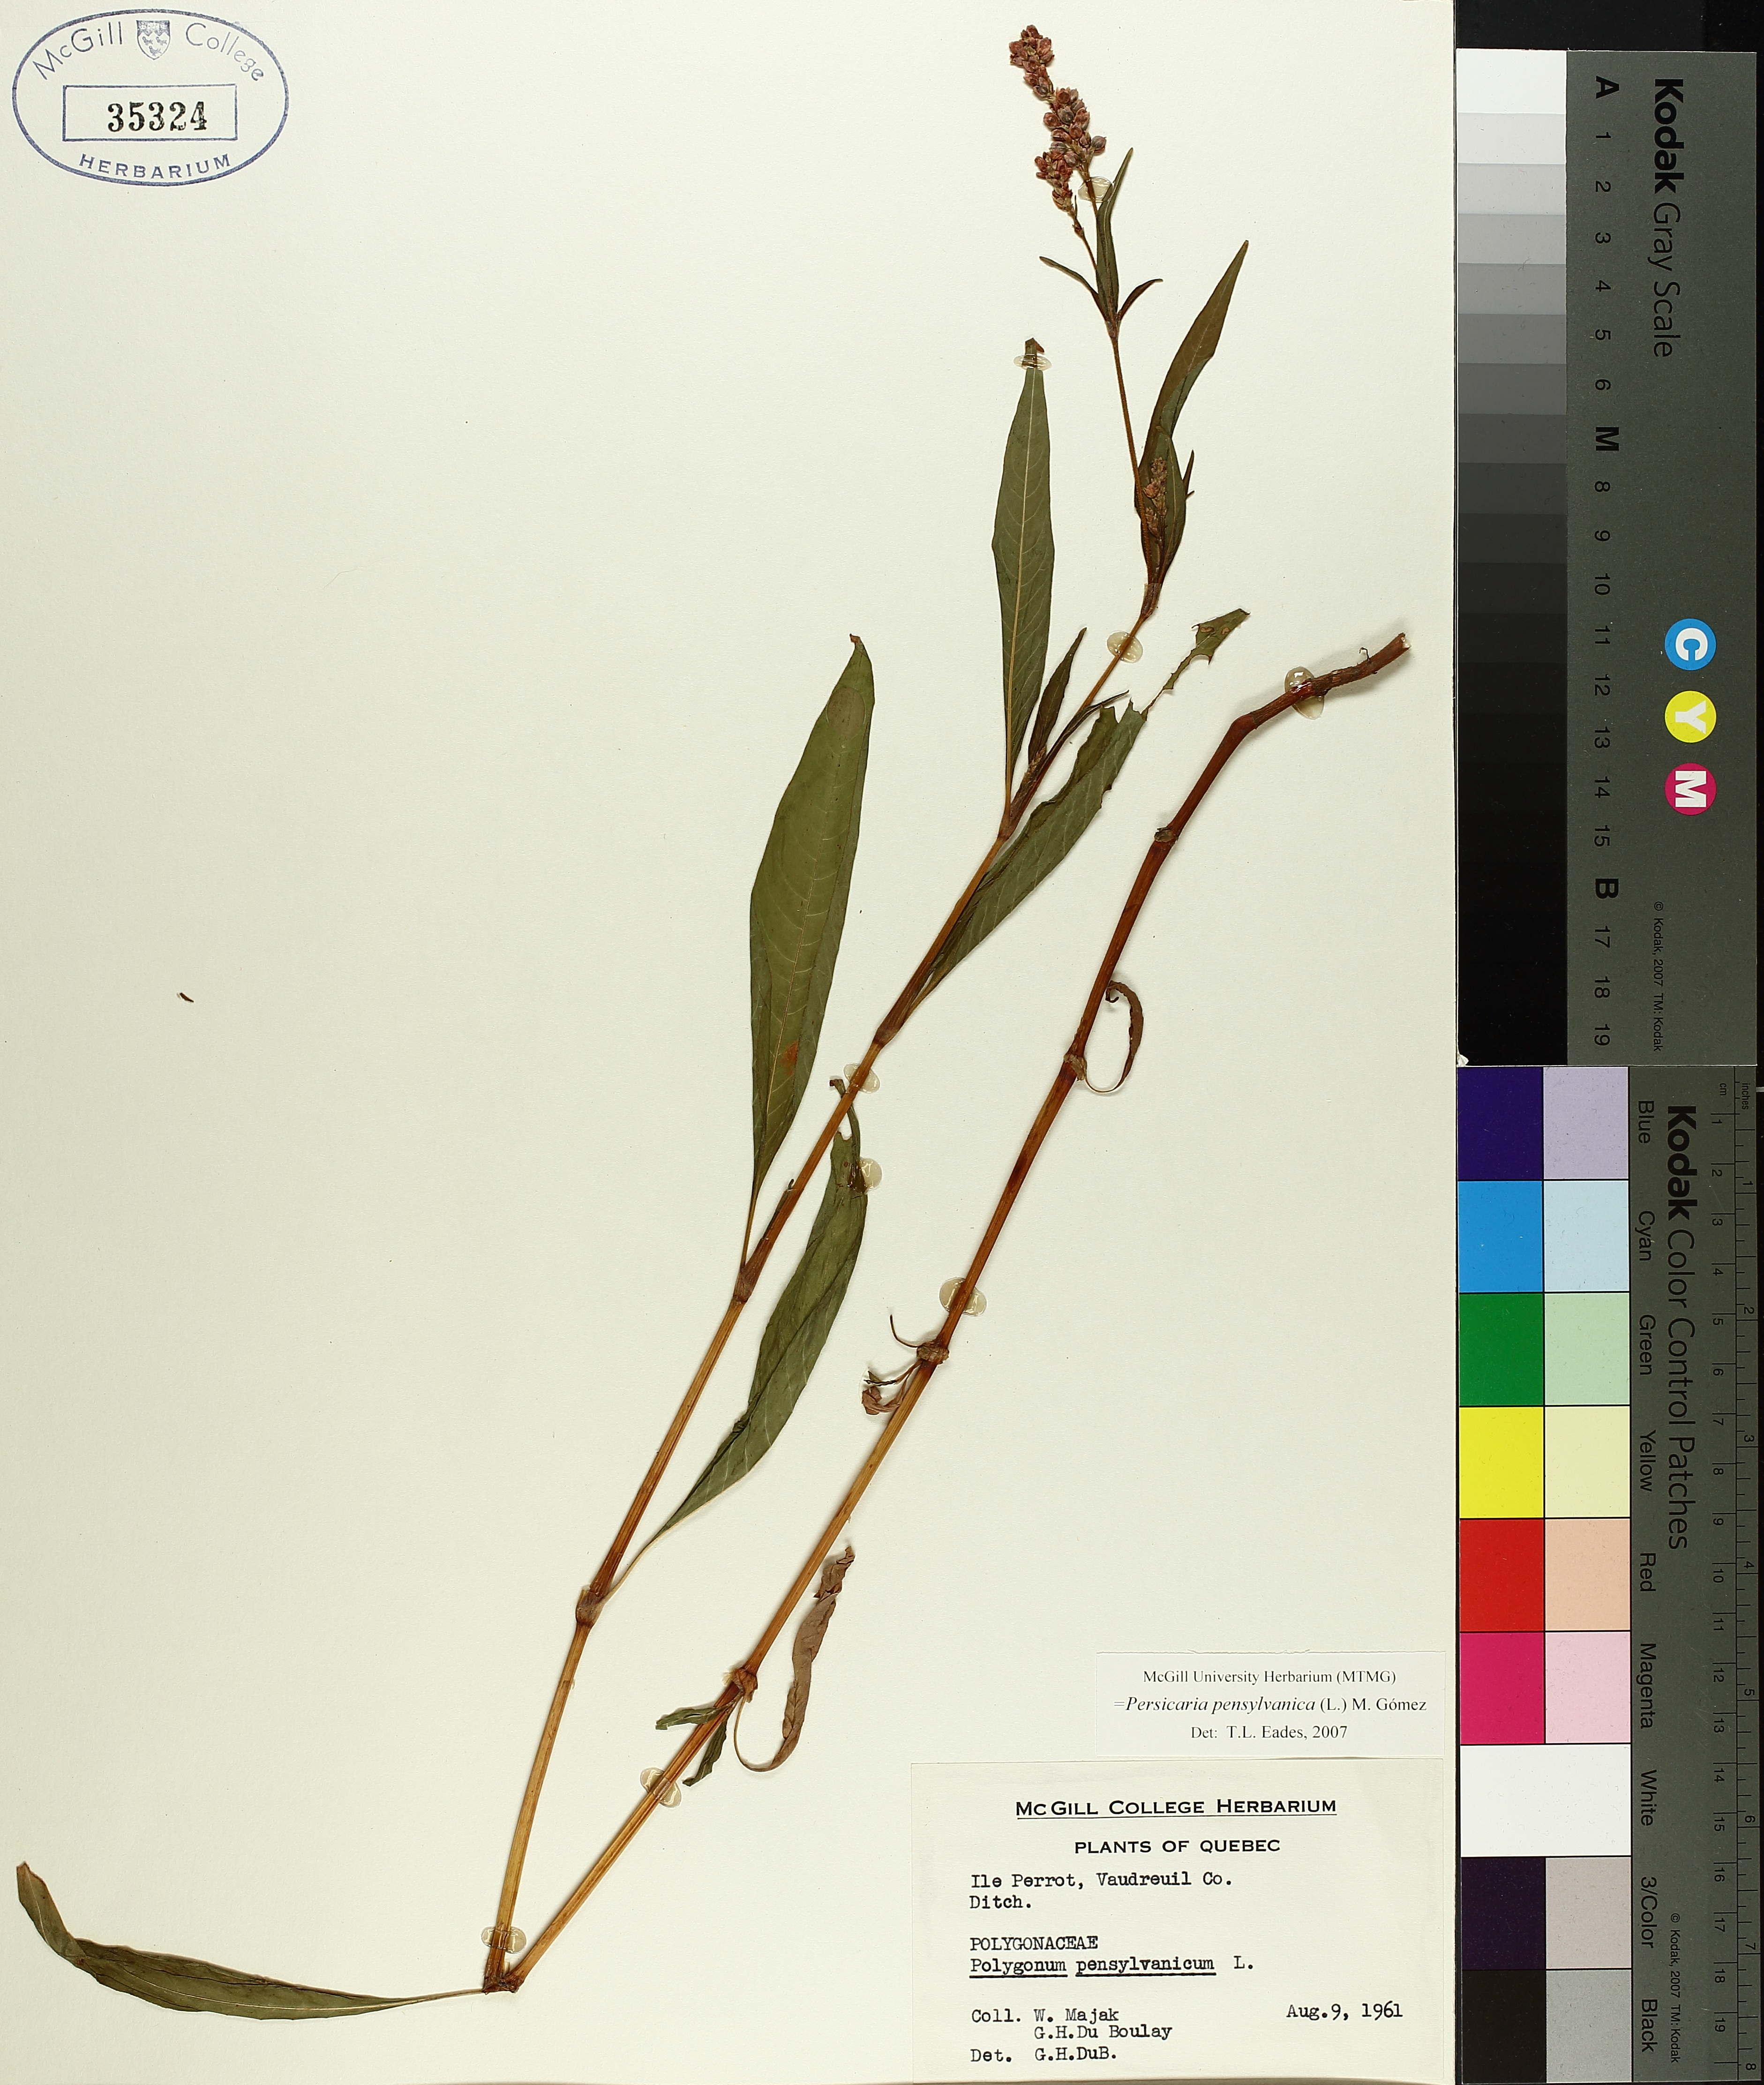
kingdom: Plantae
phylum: Tracheophyta
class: Magnoliopsida
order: Caryophyllales
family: Polygonaceae
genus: Persicaria
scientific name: Persicaria bungeana
